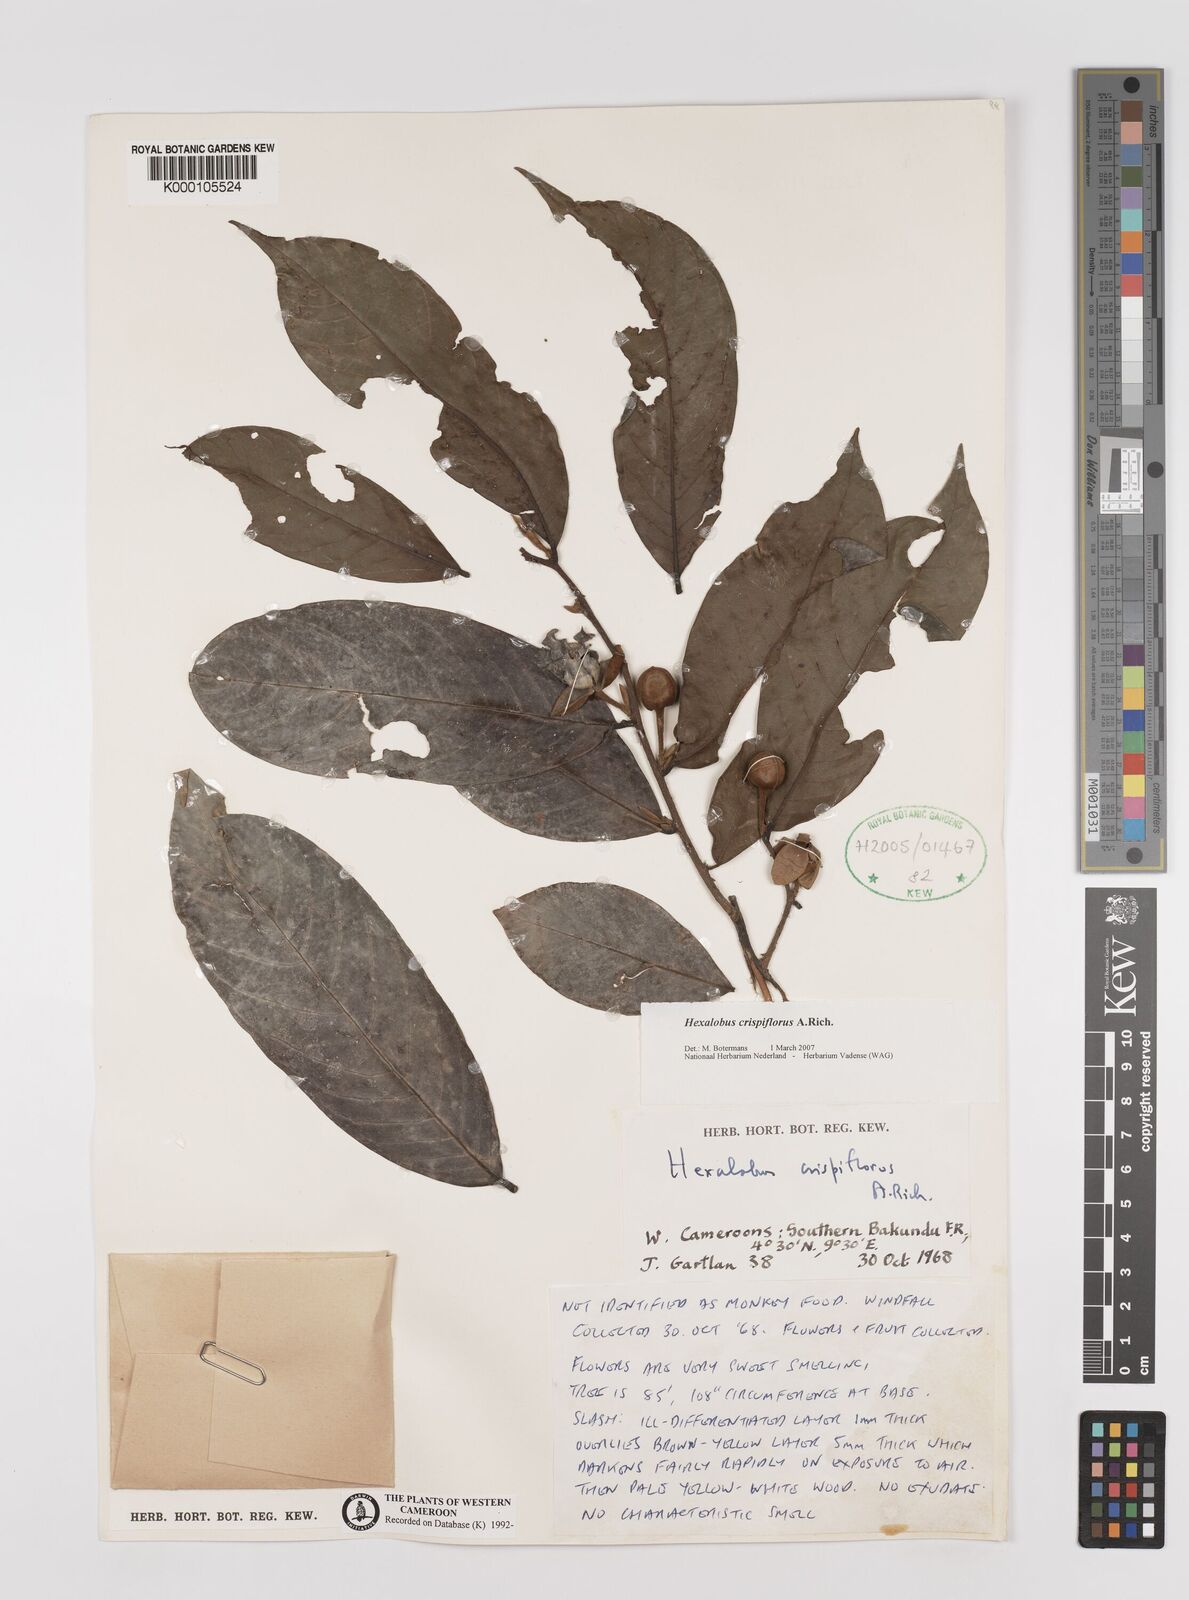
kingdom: Plantae
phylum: Tracheophyta
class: Magnoliopsida
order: Magnoliales
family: Annonaceae
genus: Hexalobus
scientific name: Hexalobus crispiflorus
